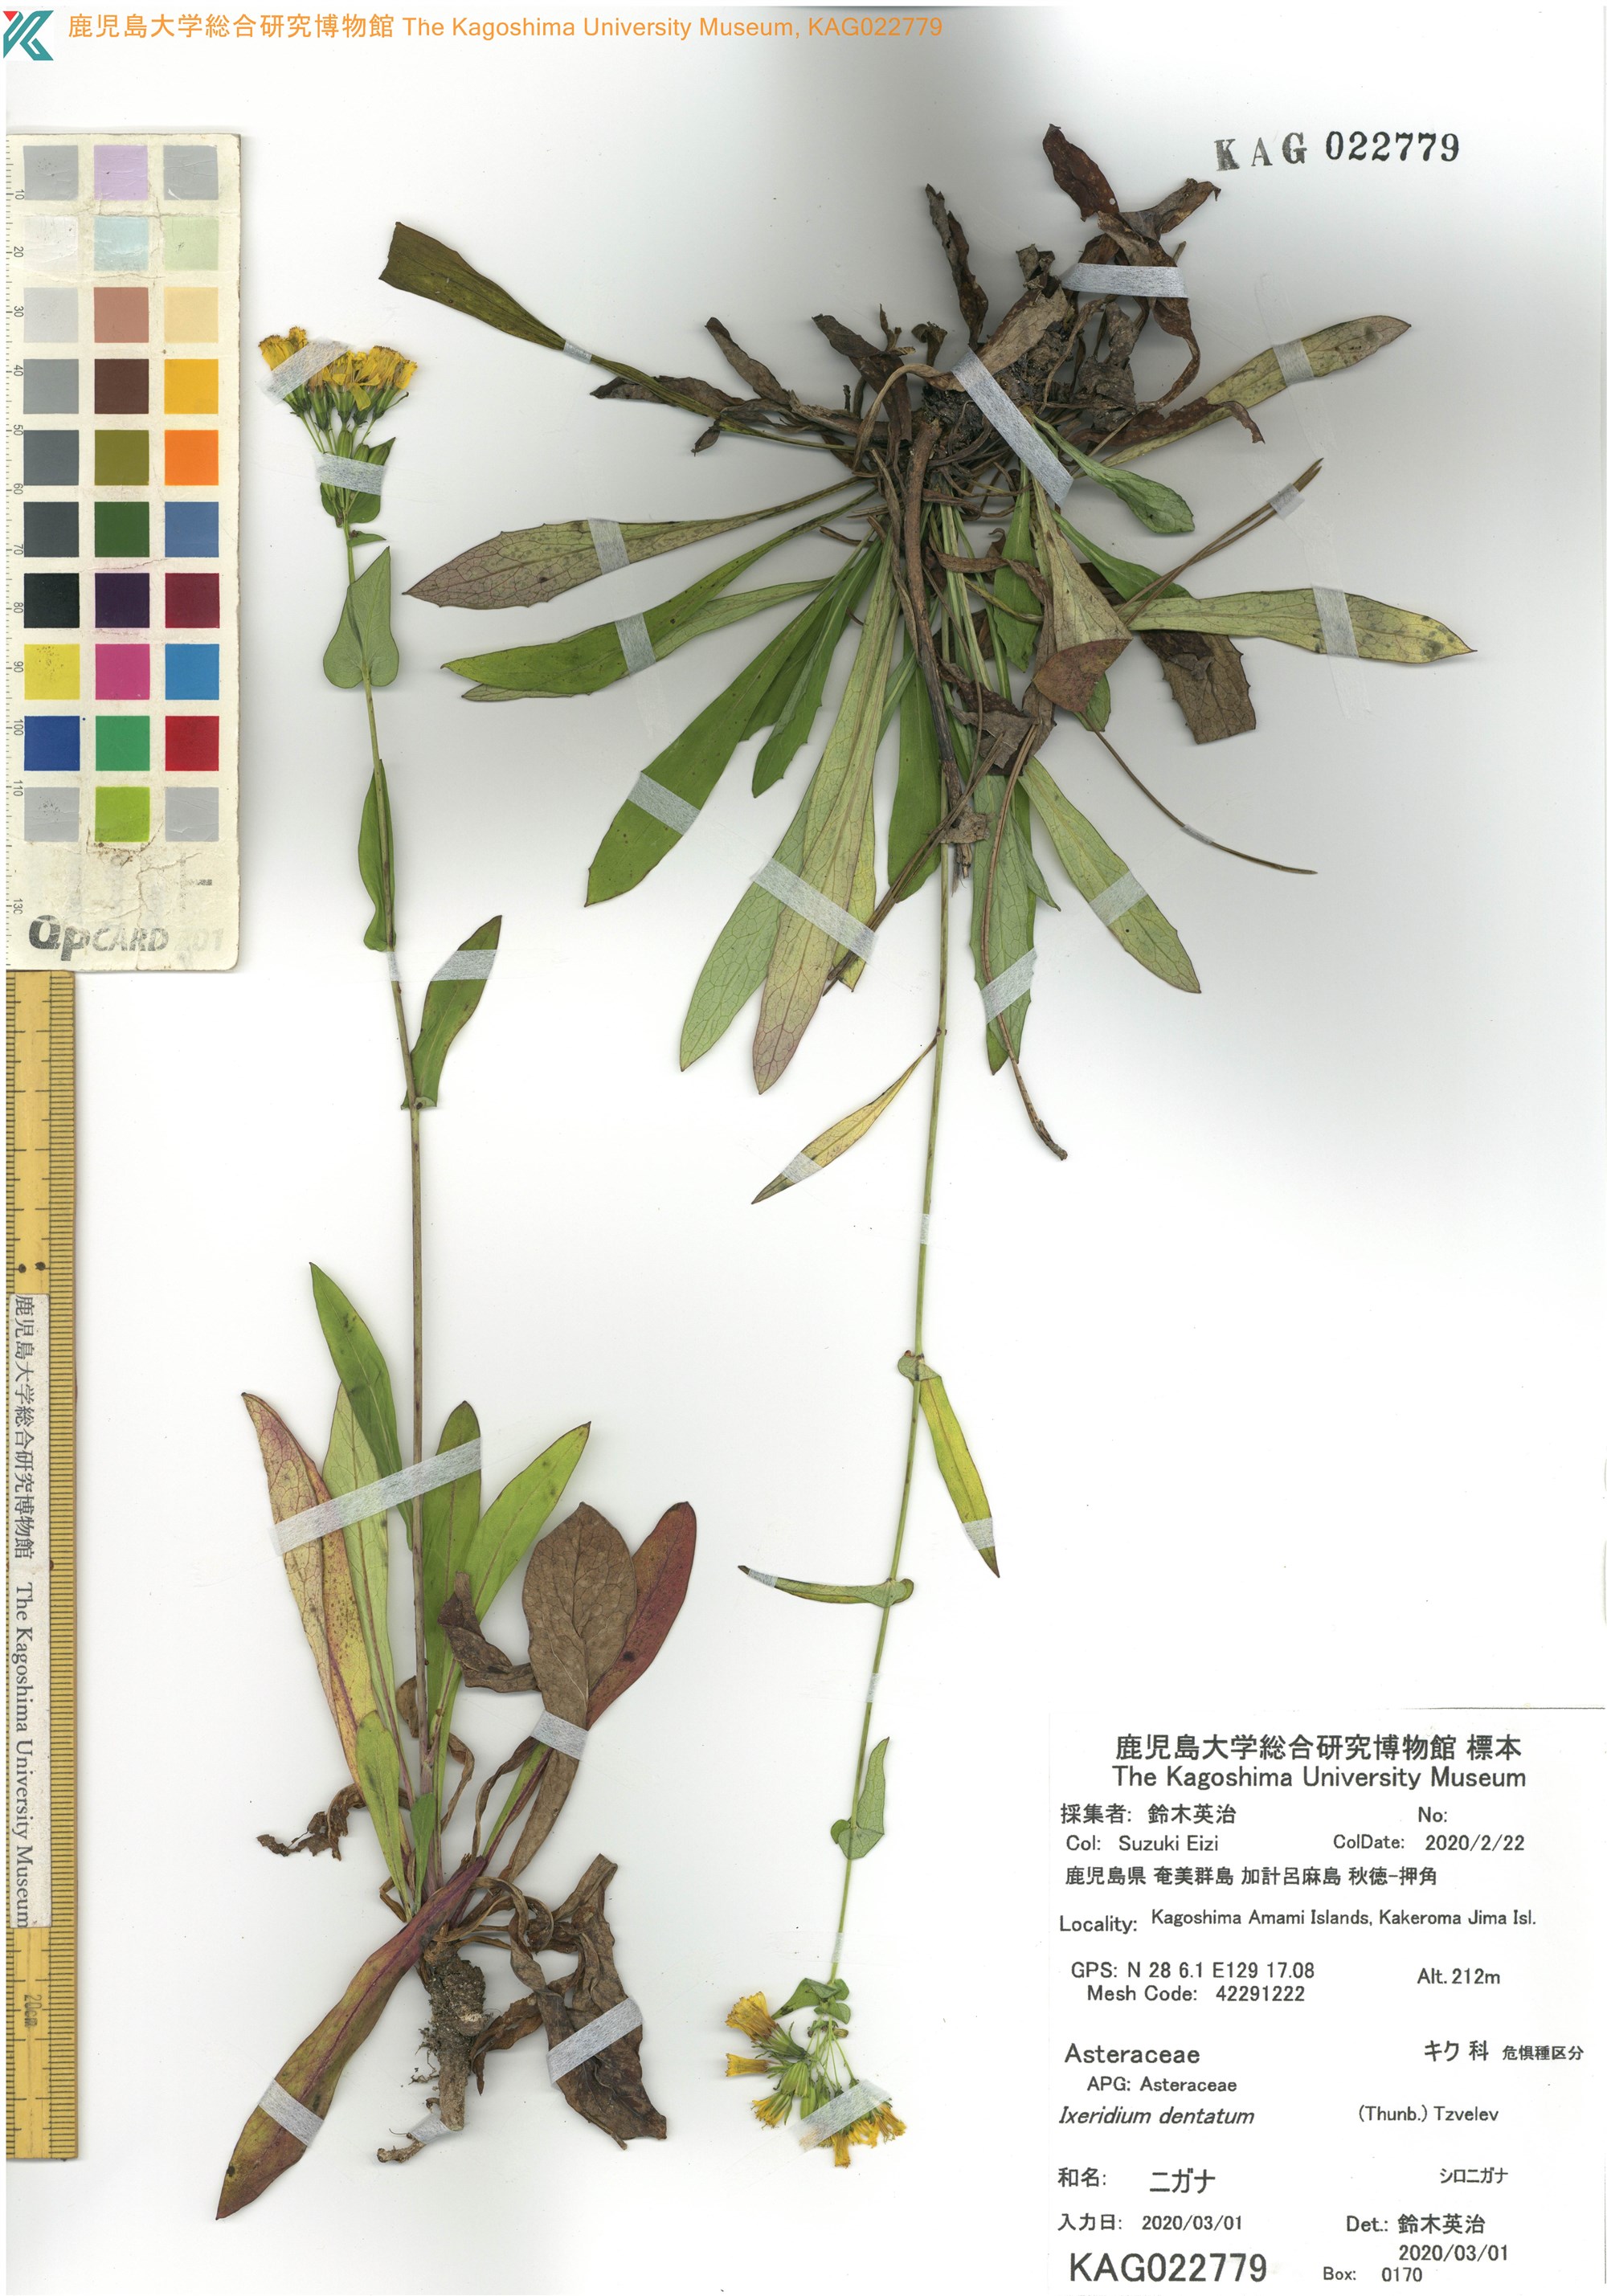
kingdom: Plantae
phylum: Tracheophyta
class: Magnoliopsida
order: Asterales
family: Asteraceae
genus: Ixeridium
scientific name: Ixeridium dentatum
